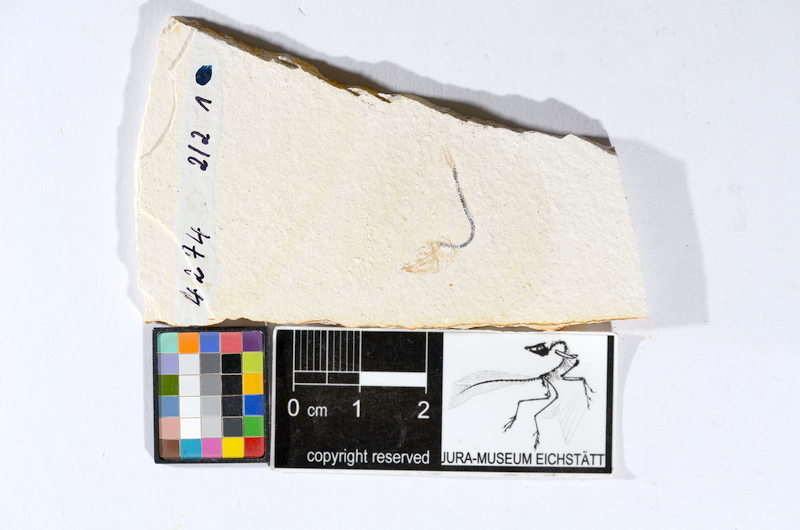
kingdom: Animalia
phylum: Chordata
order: Salmoniformes
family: Orthogonikleithridae
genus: Orthogonikleithrus
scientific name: Orthogonikleithrus hoelli
